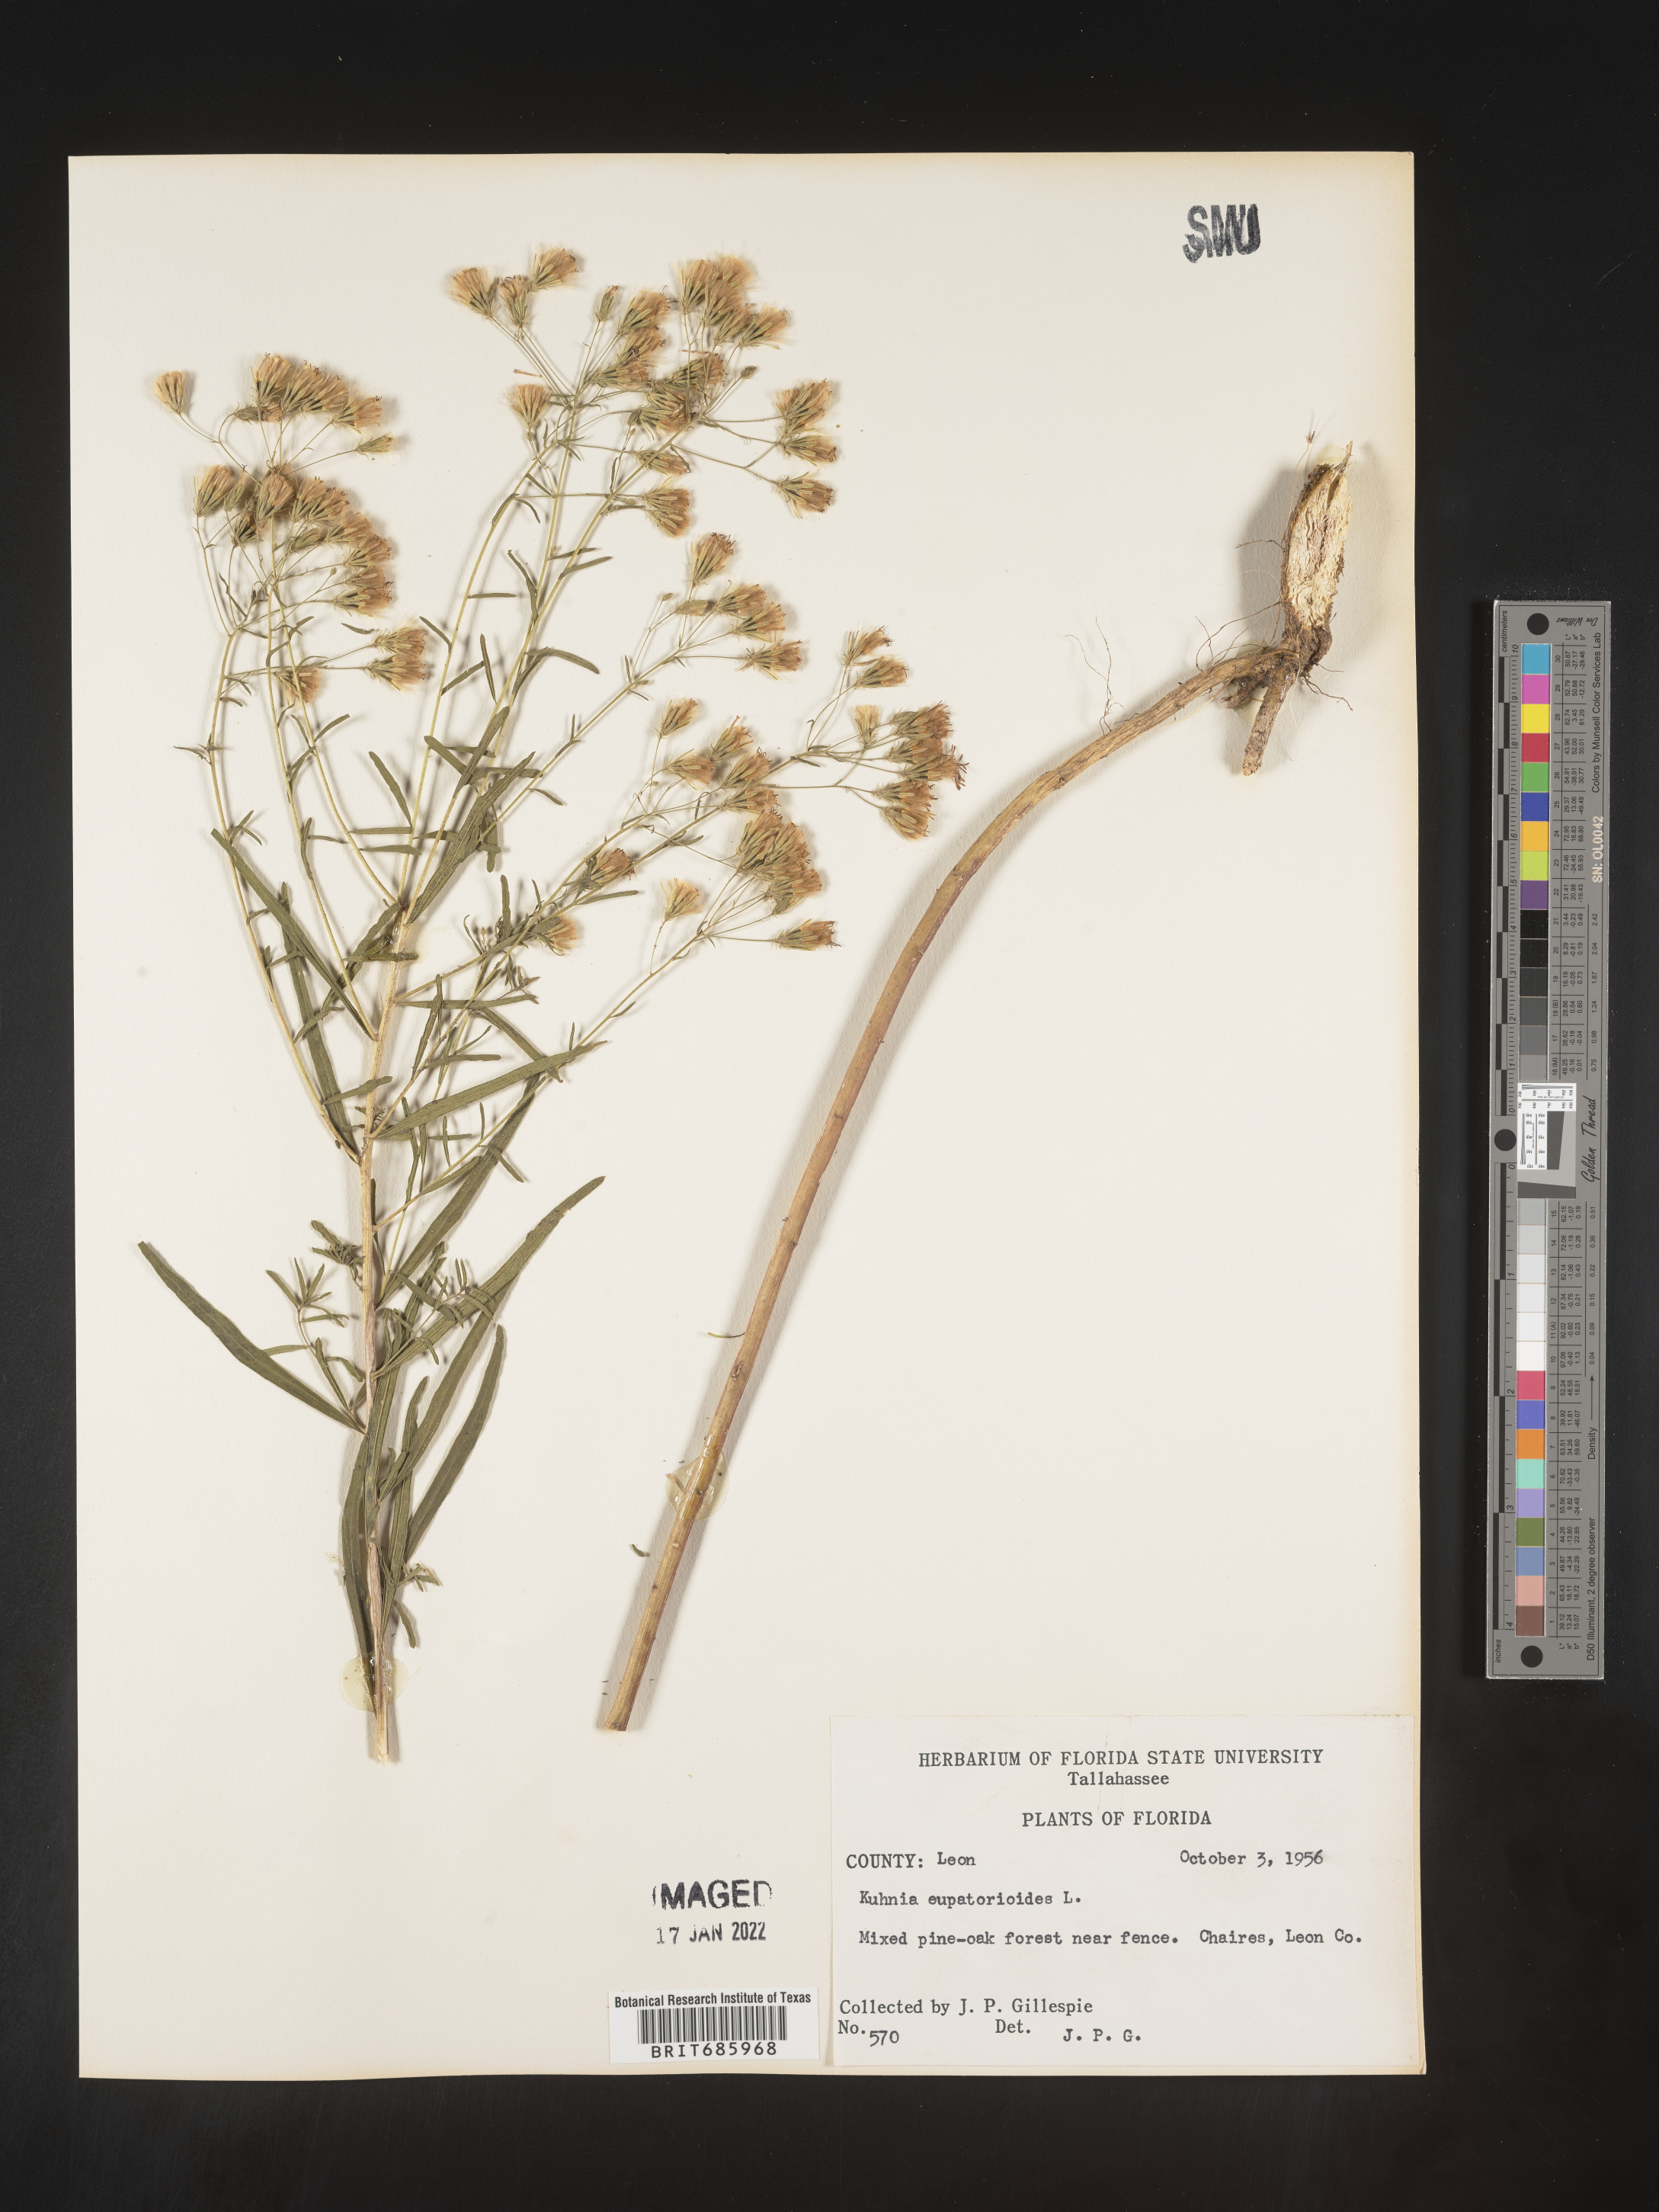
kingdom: Plantae
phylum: Tracheophyta
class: Magnoliopsida
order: Asterales
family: Asteraceae
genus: Brickellia
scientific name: Brickellia eupatorioides
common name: False boneset
